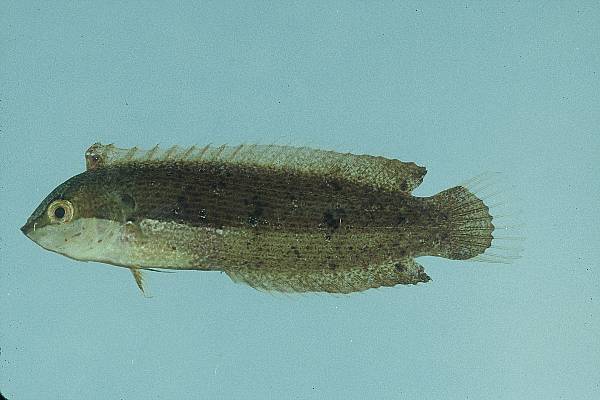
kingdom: Animalia
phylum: Chordata
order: Perciformes
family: Labridae
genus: Novaculoides
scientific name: Novaculoides macrolepidotus
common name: Seagrass wrasse
